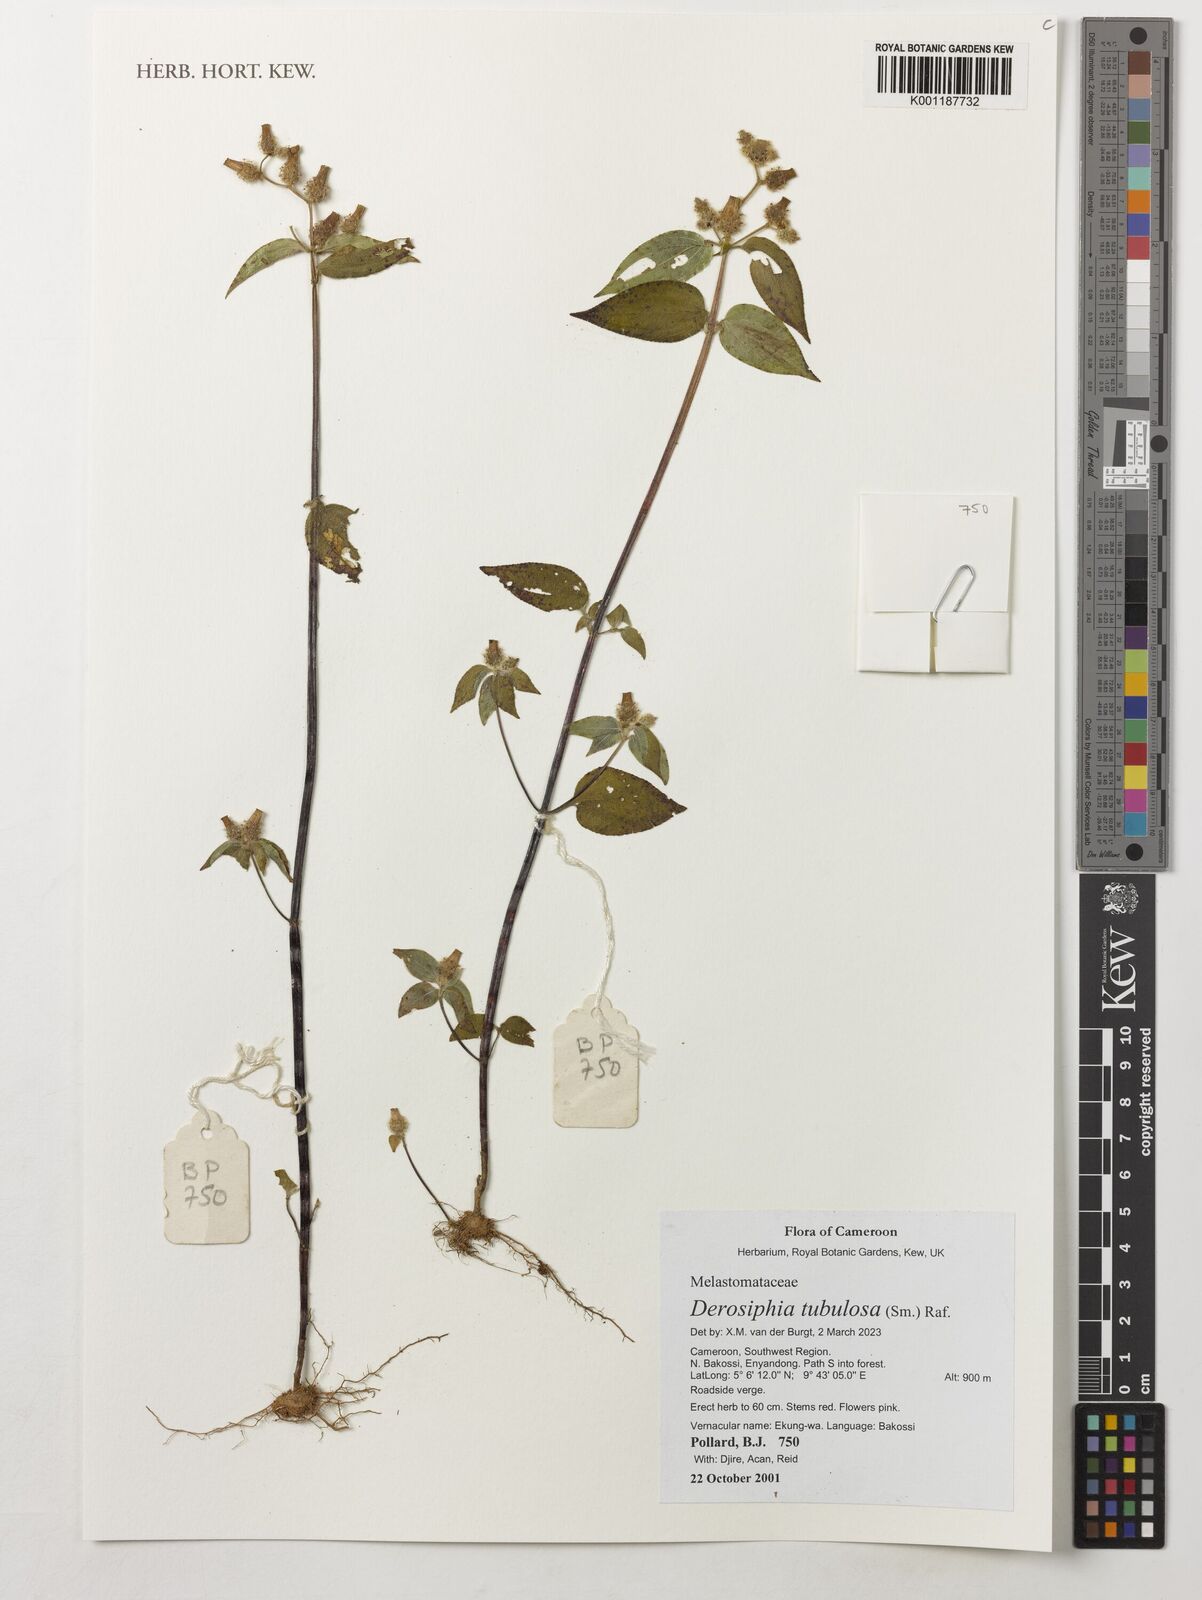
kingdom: Plantae
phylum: Tracheophyta
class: Magnoliopsida
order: Myrtales
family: Melastomataceae
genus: Derosiphia
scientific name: Derosiphia tubulosa
